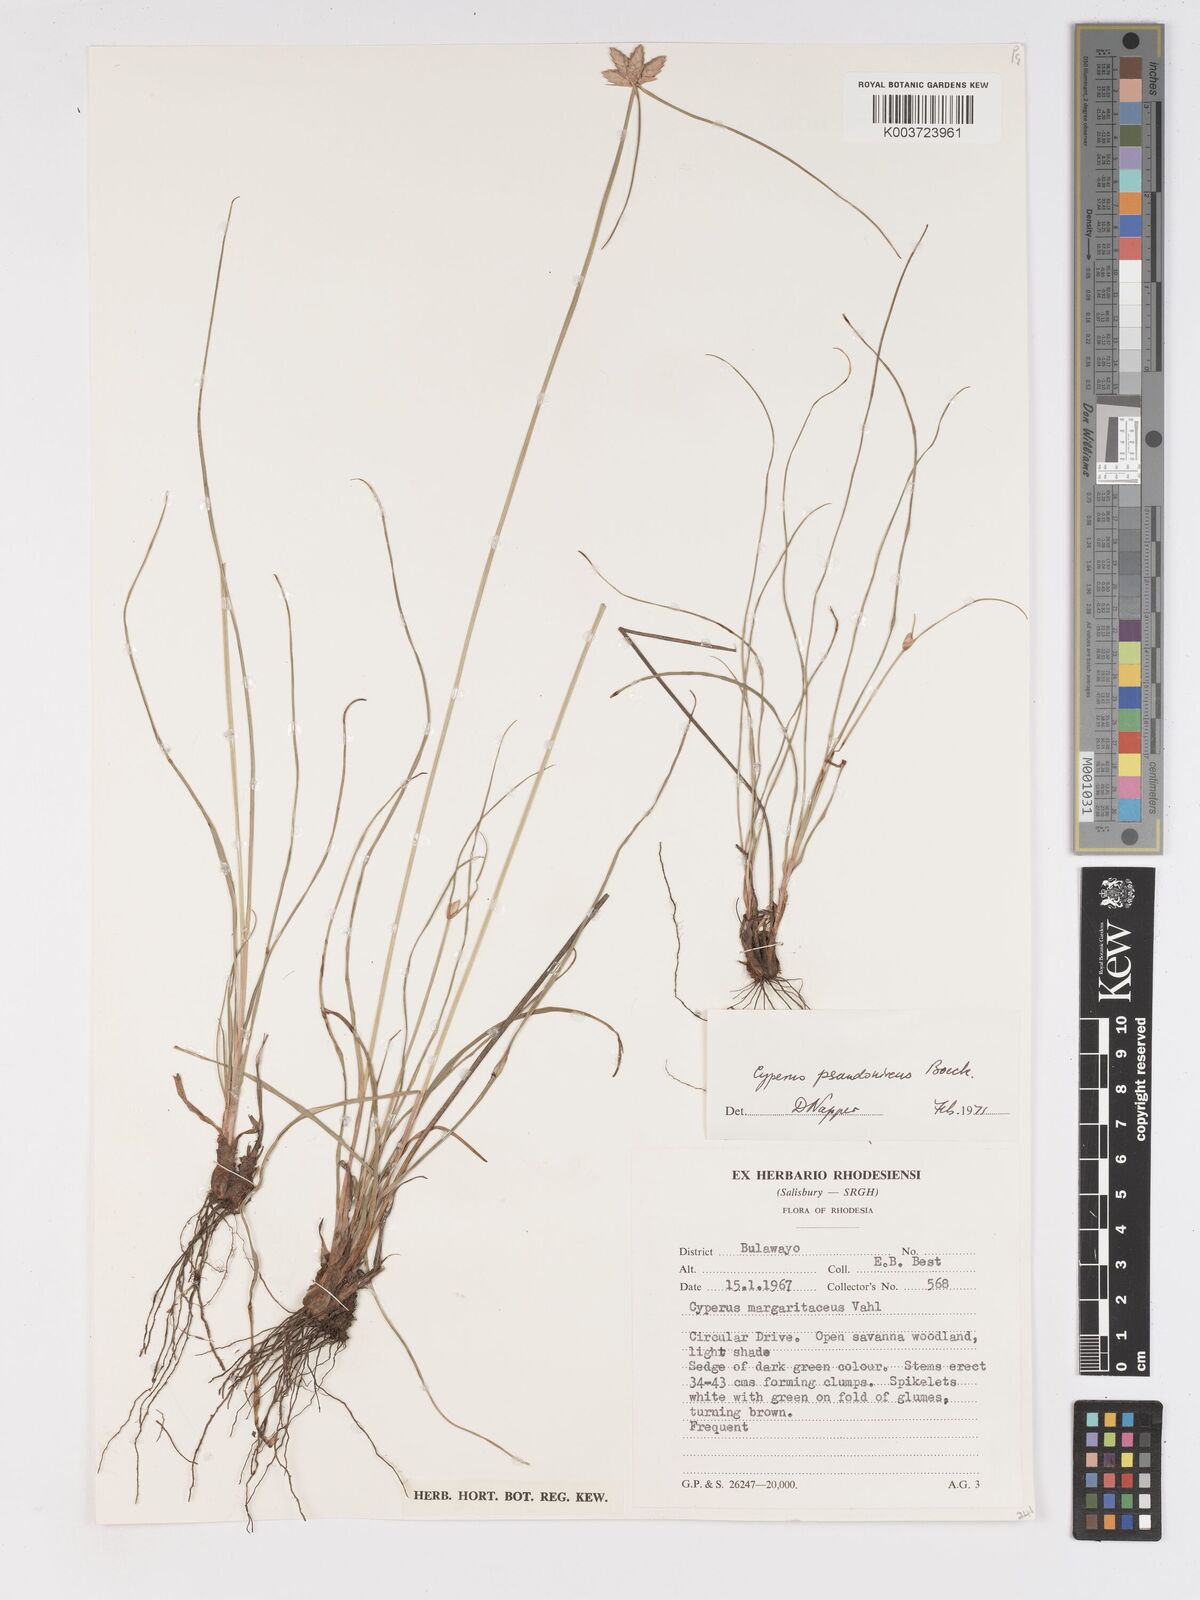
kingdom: Plantae
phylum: Tracheophyta
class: Liliopsida
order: Poales
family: Cyperaceae
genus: Cyperus
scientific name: Cyperus margaritaceus
